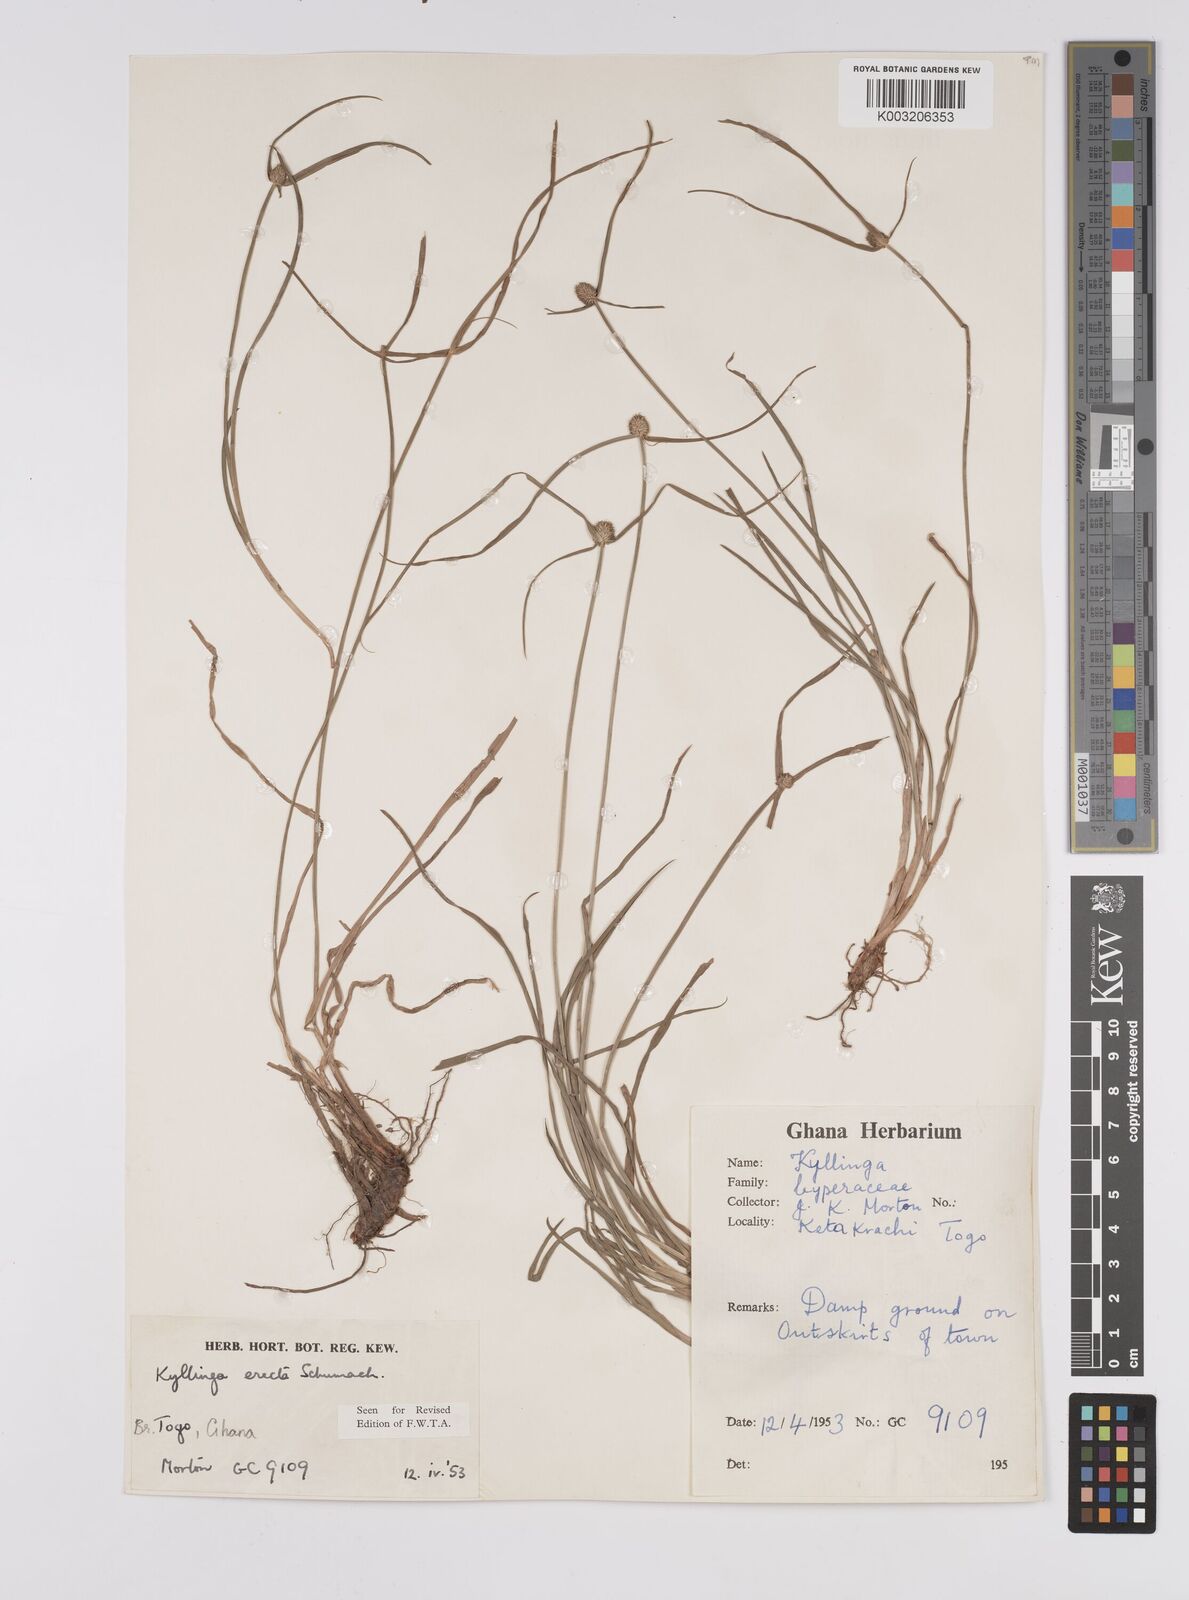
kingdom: Plantae
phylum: Tracheophyta
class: Liliopsida
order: Poales
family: Cyperaceae
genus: Cyperus
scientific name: Cyperus erectus
